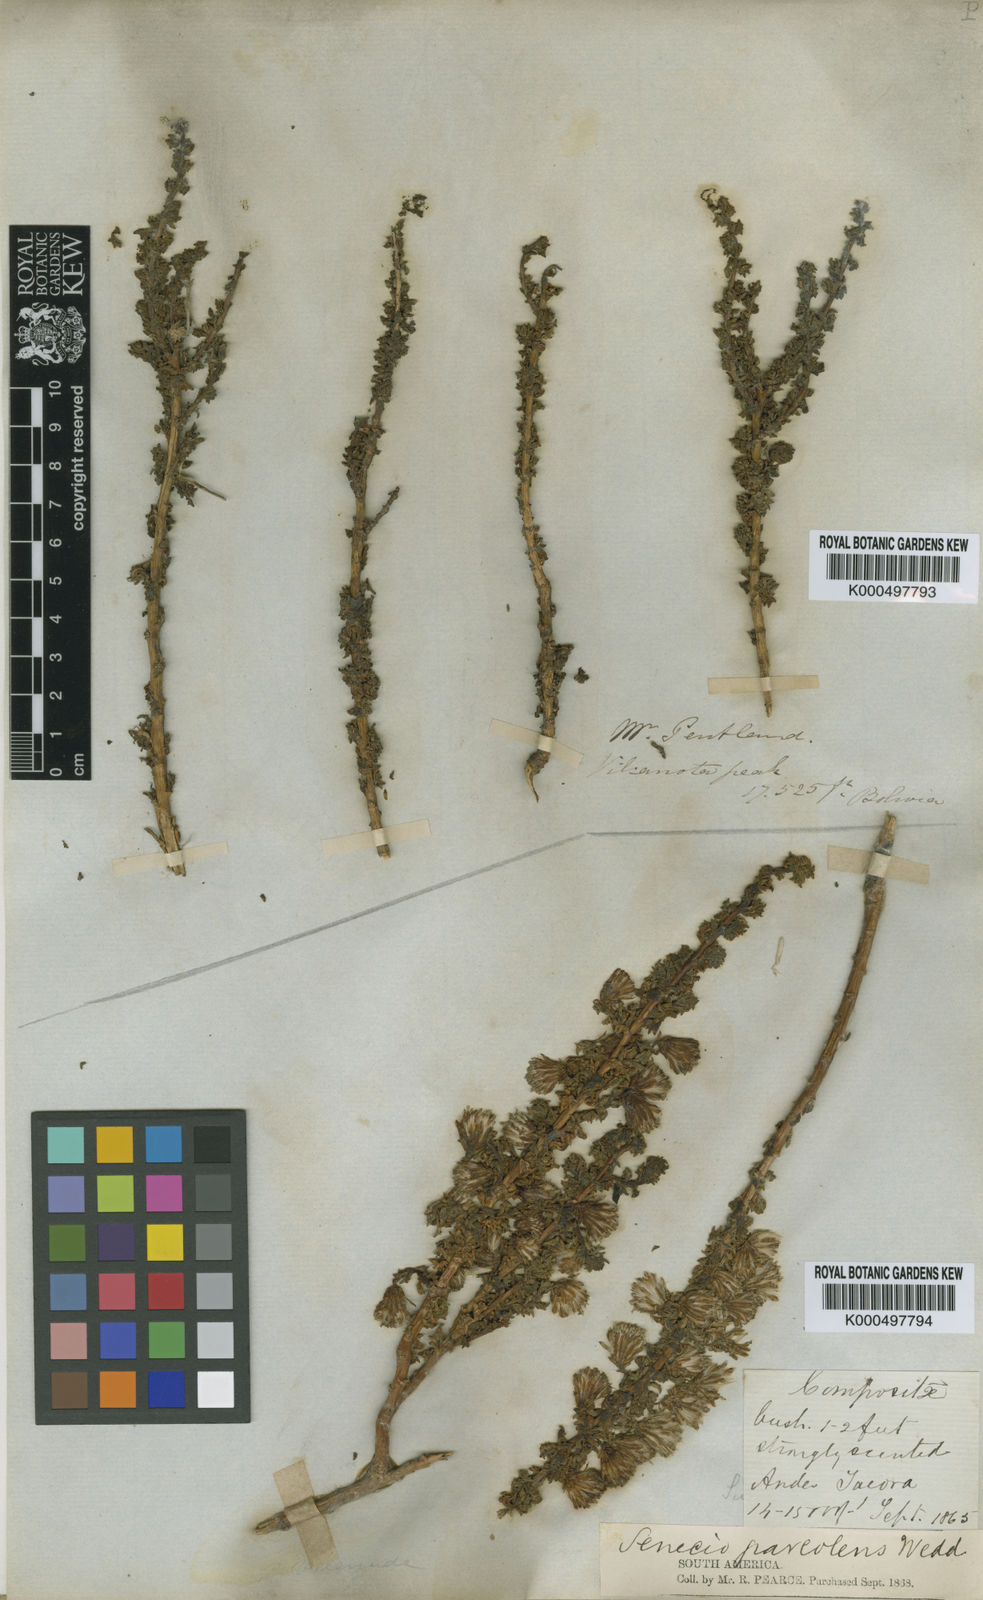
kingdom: Plantae
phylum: Tracheophyta
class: Magnoliopsida
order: Asterales
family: Asteraceae
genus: Senecio
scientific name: Senecio nutans
